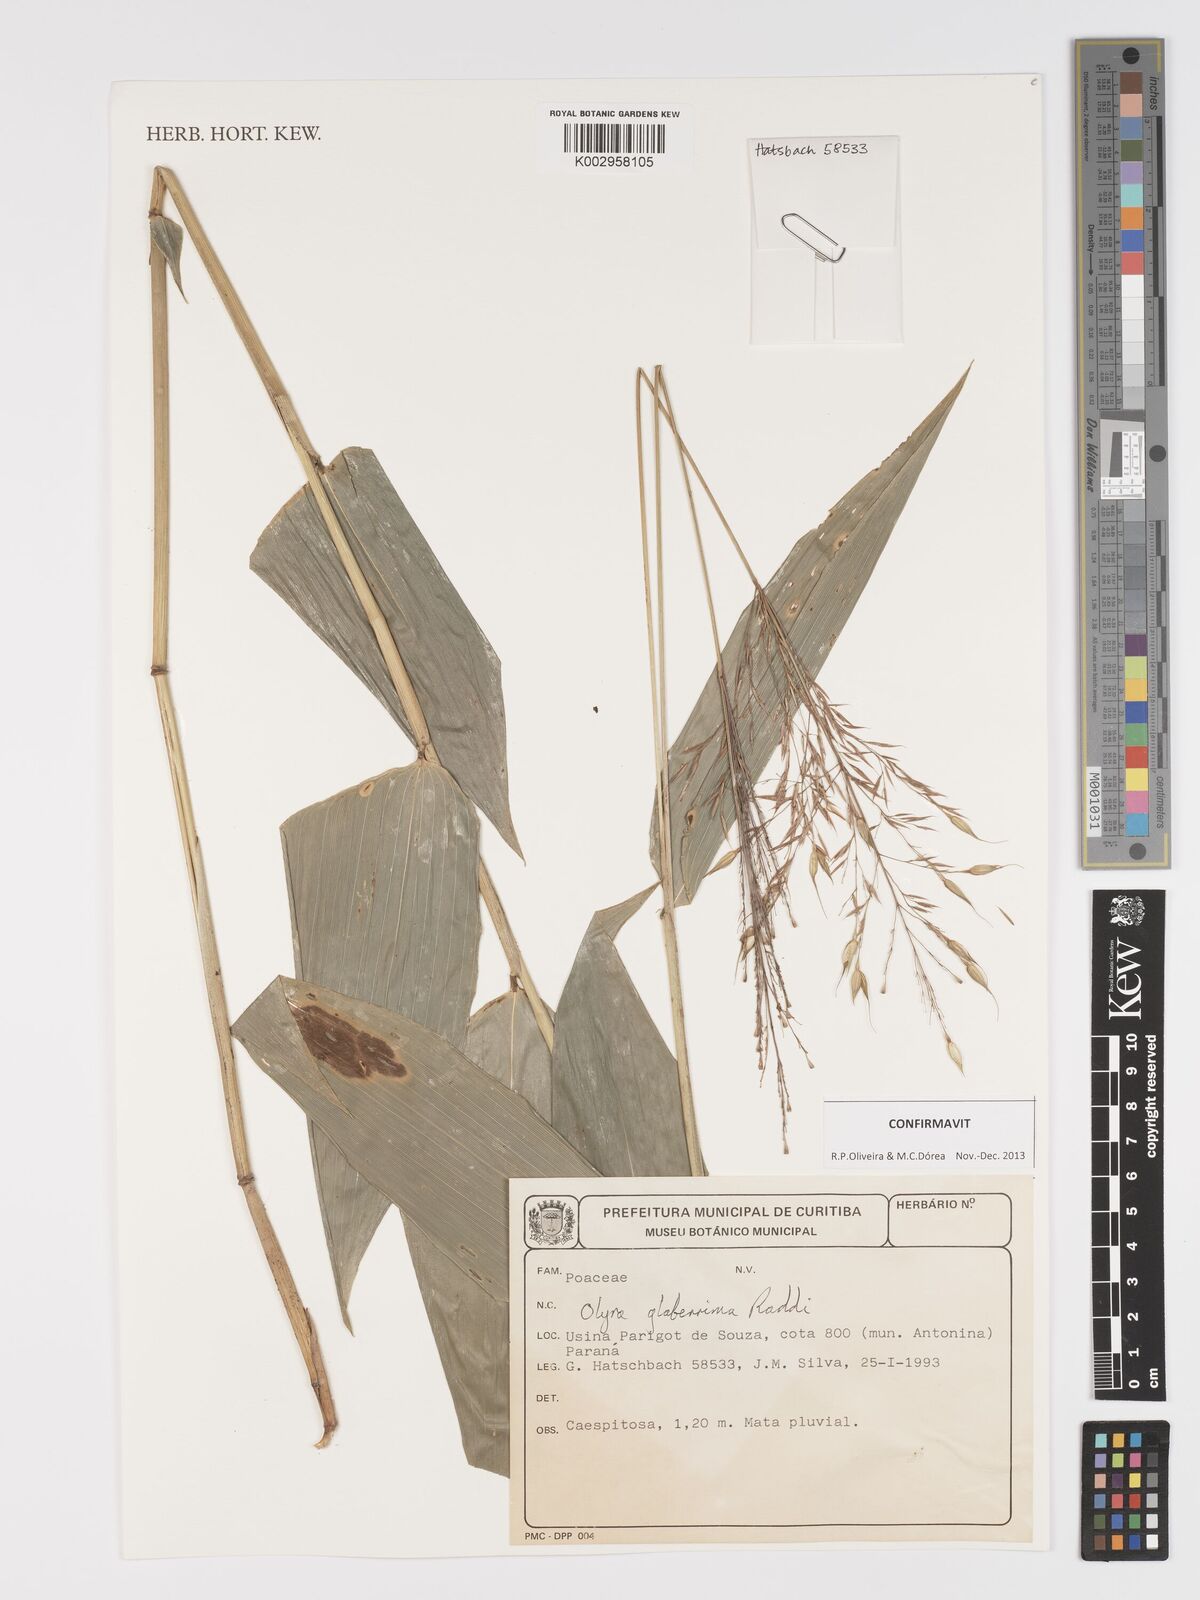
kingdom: Plantae
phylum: Tracheophyta
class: Liliopsida
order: Poales
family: Poaceae
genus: Olyra
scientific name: Olyra glaberrima
